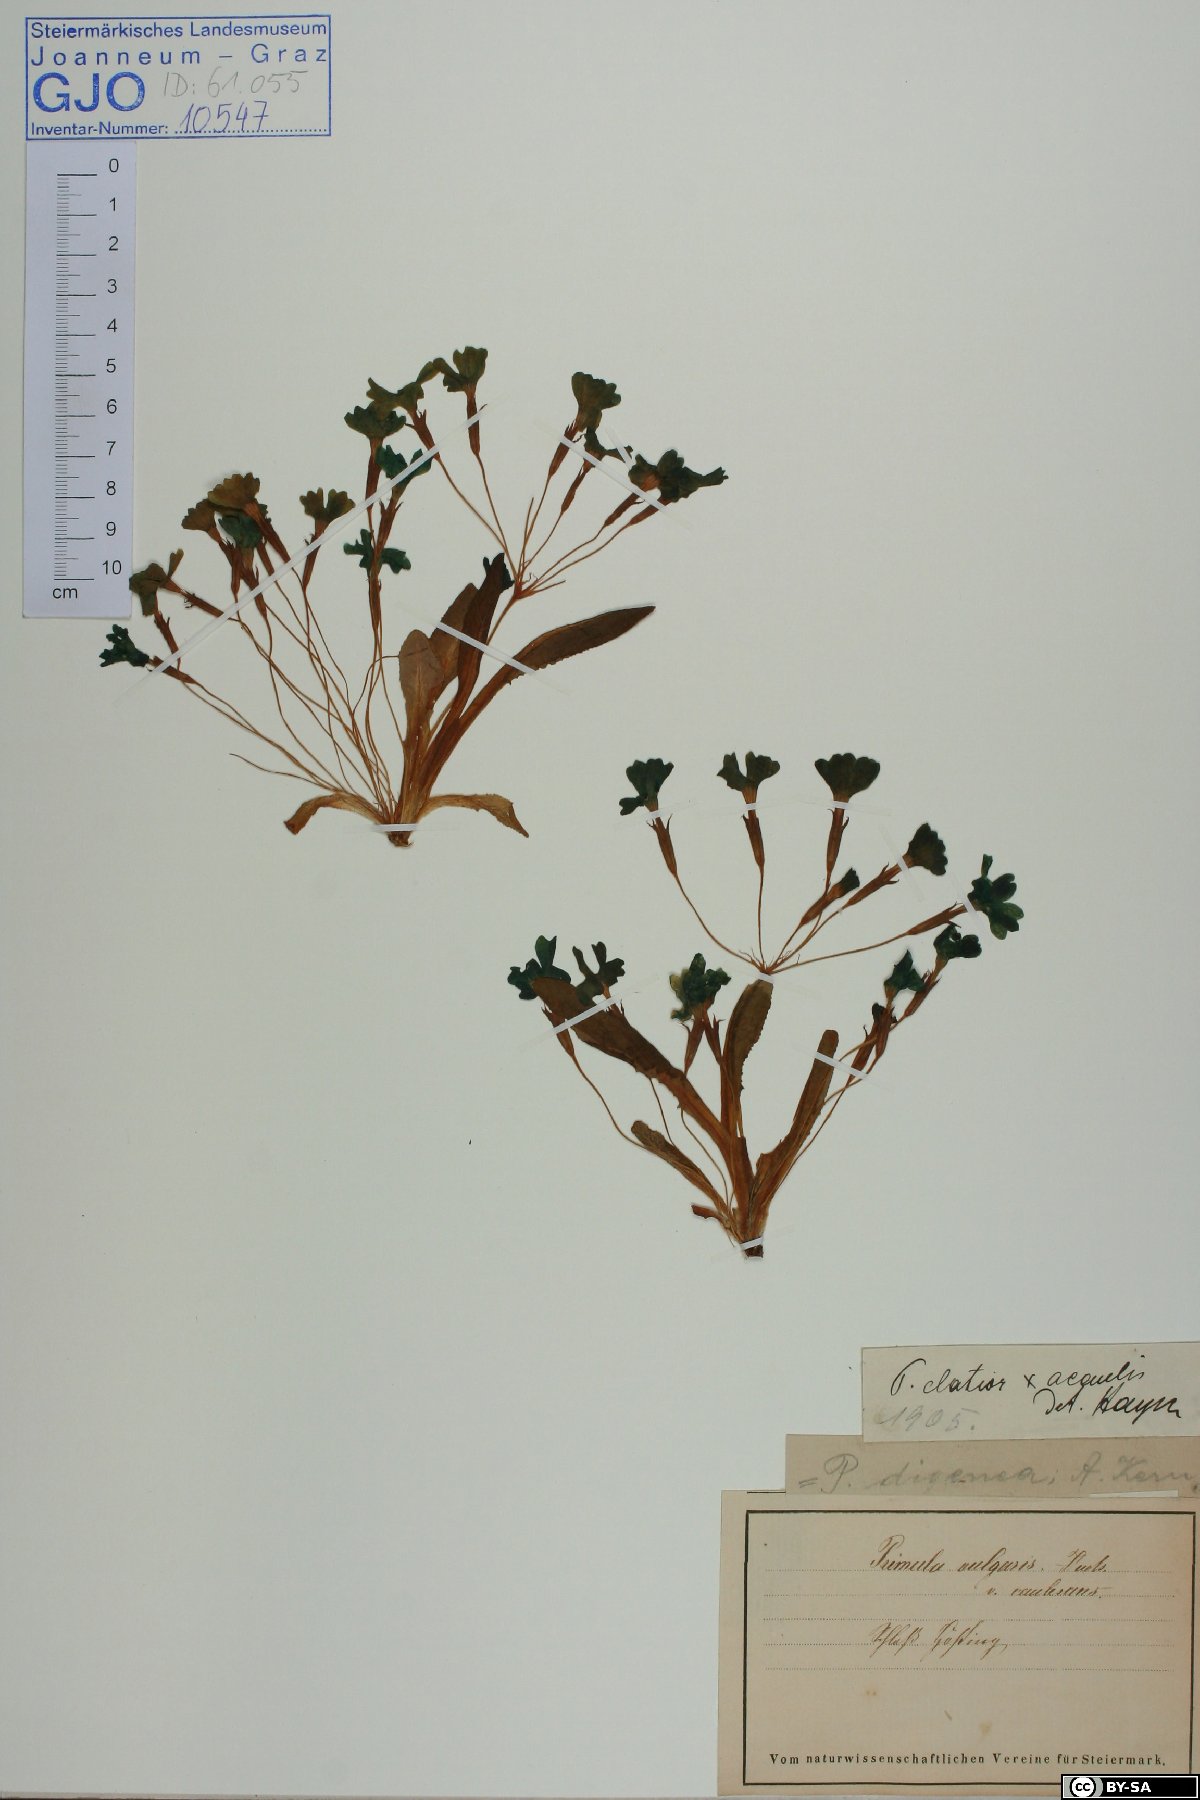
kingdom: Plantae
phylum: Tracheophyta
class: Magnoliopsida
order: Ericales
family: Primulaceae
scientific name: Primulaceae
